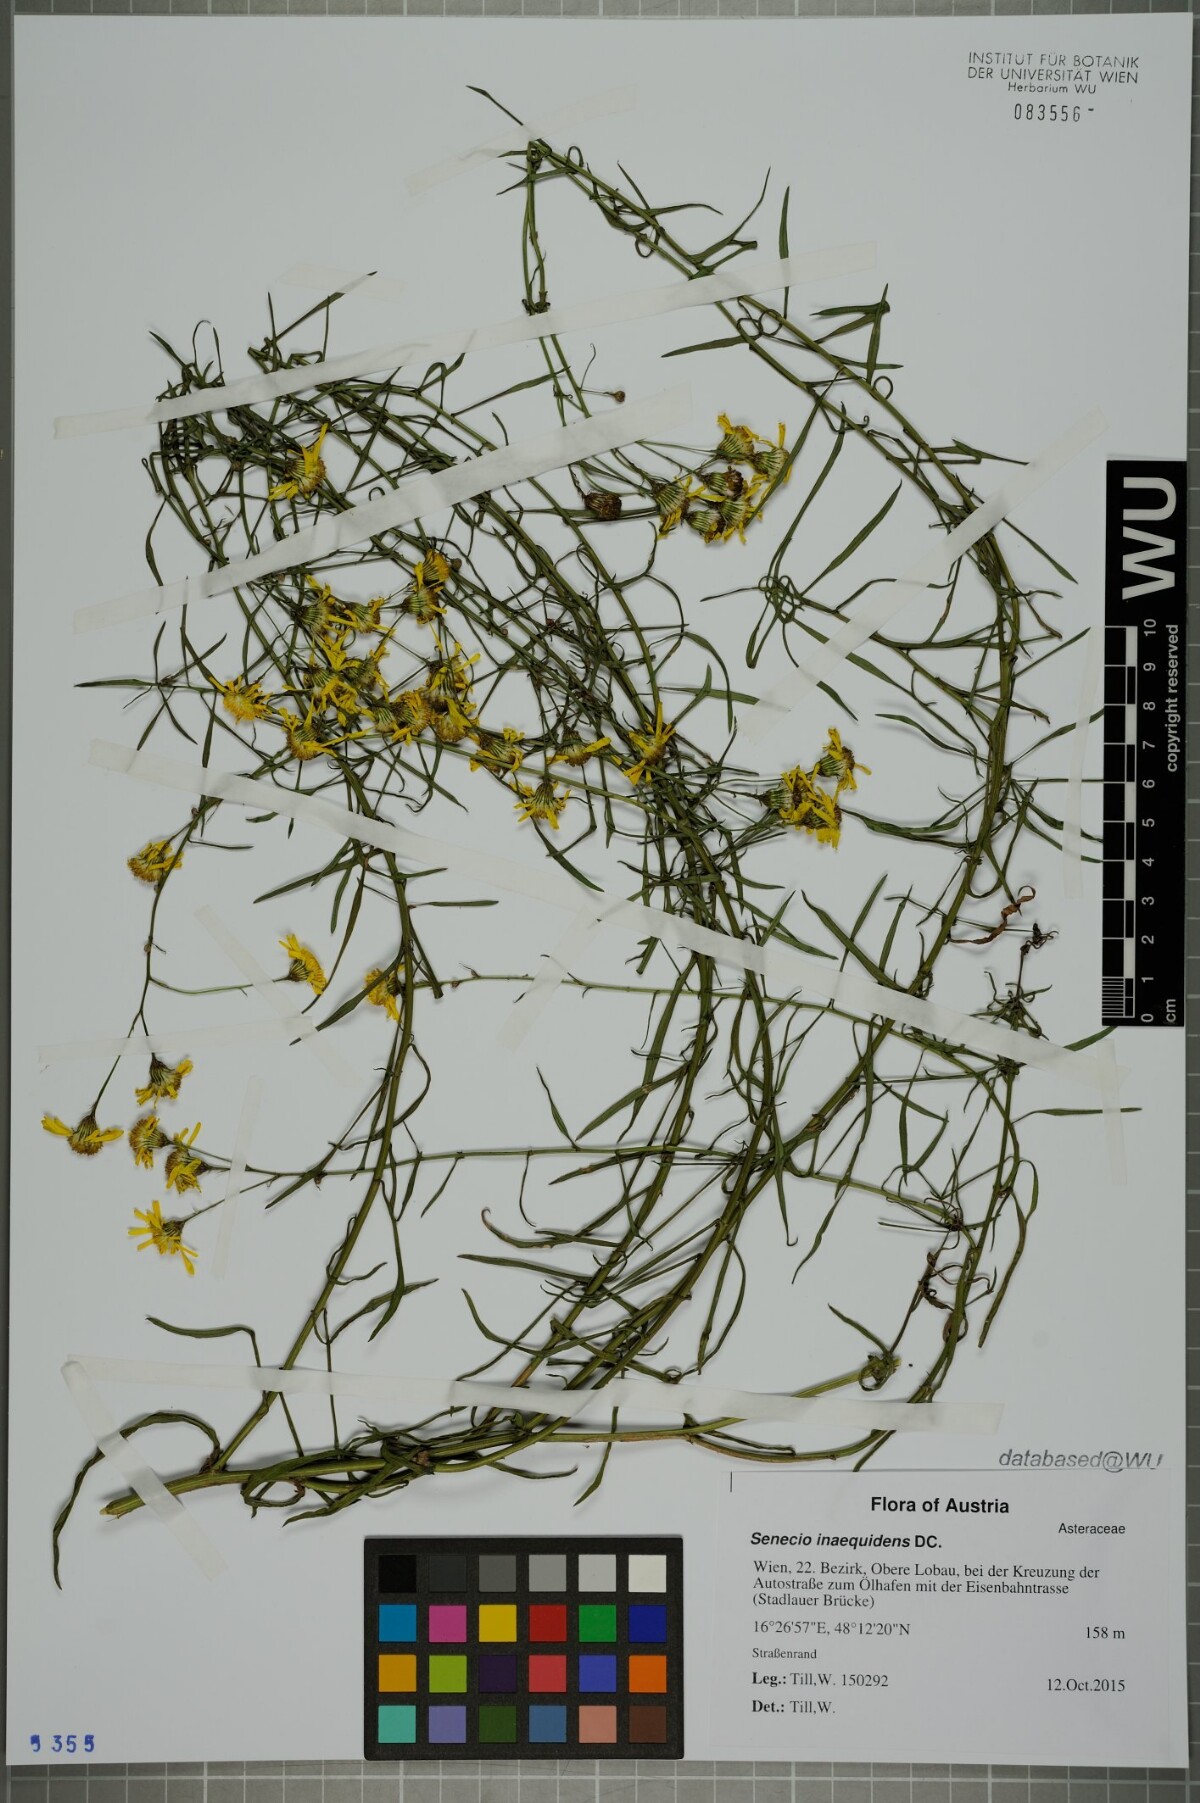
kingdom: Plantae
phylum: Tracheophyta
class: Magnoliopsida
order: Asterales
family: Asteraceae
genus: Senecio
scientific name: Senecio inaequidens
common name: Narrow-leaved ragwort
